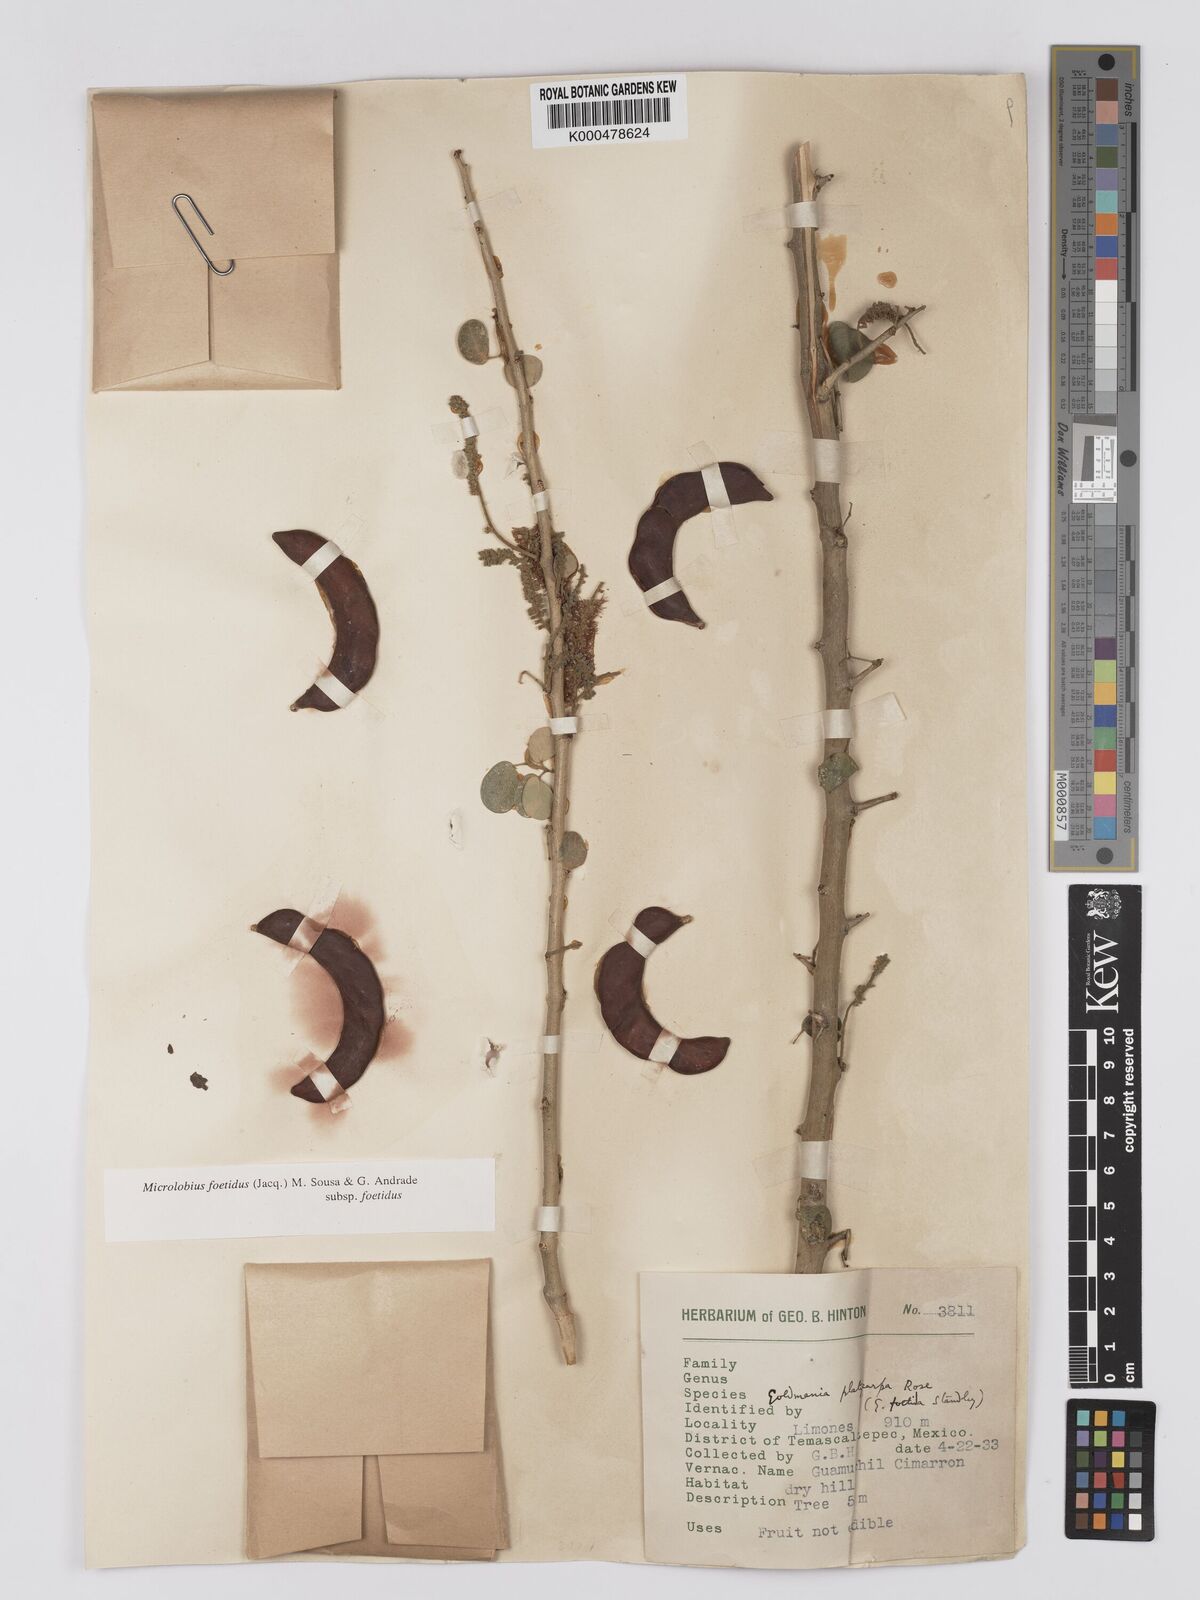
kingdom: Plantae
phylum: Tracheophyta
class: Magnoliopsida
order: Fabales
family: Fabaceae
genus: Microlobius
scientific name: Microlobius foetidus
